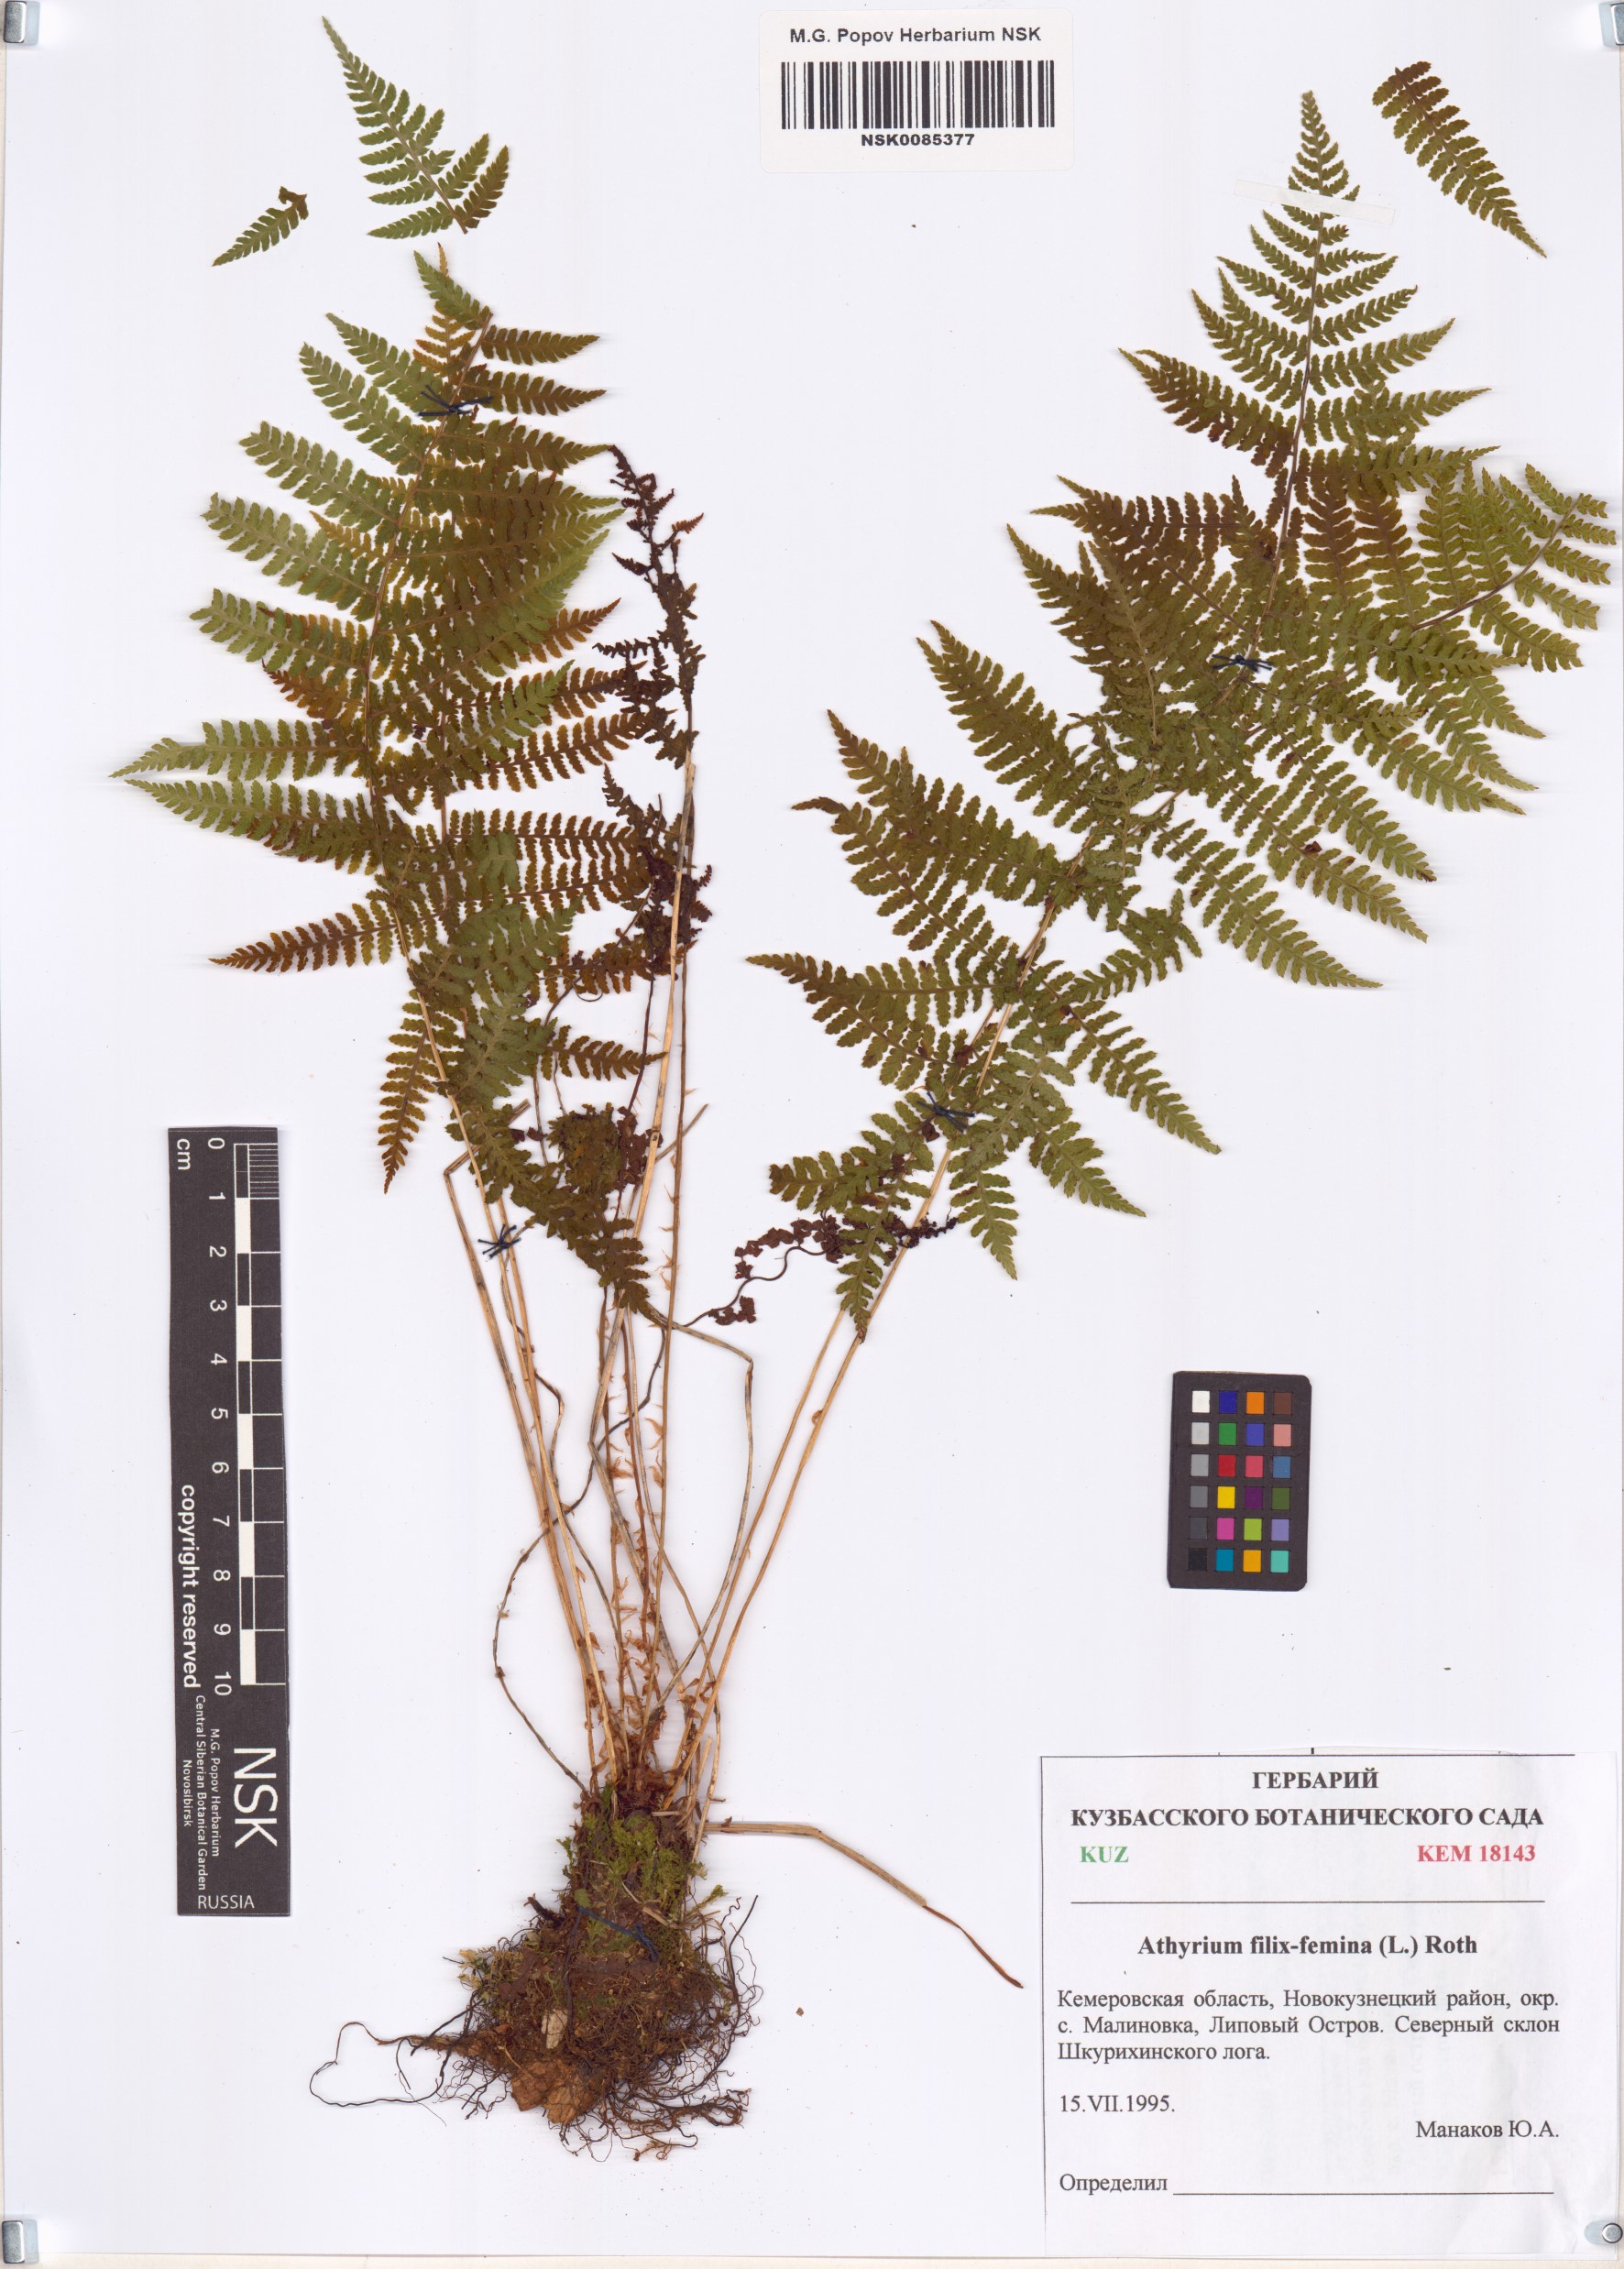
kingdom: Plantae
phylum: Tracheophyta
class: Polypodiopsida
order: Polypodiales
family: Athyriaceae
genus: Athyrium
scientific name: Athyrium filix-femina
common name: Lady fern
